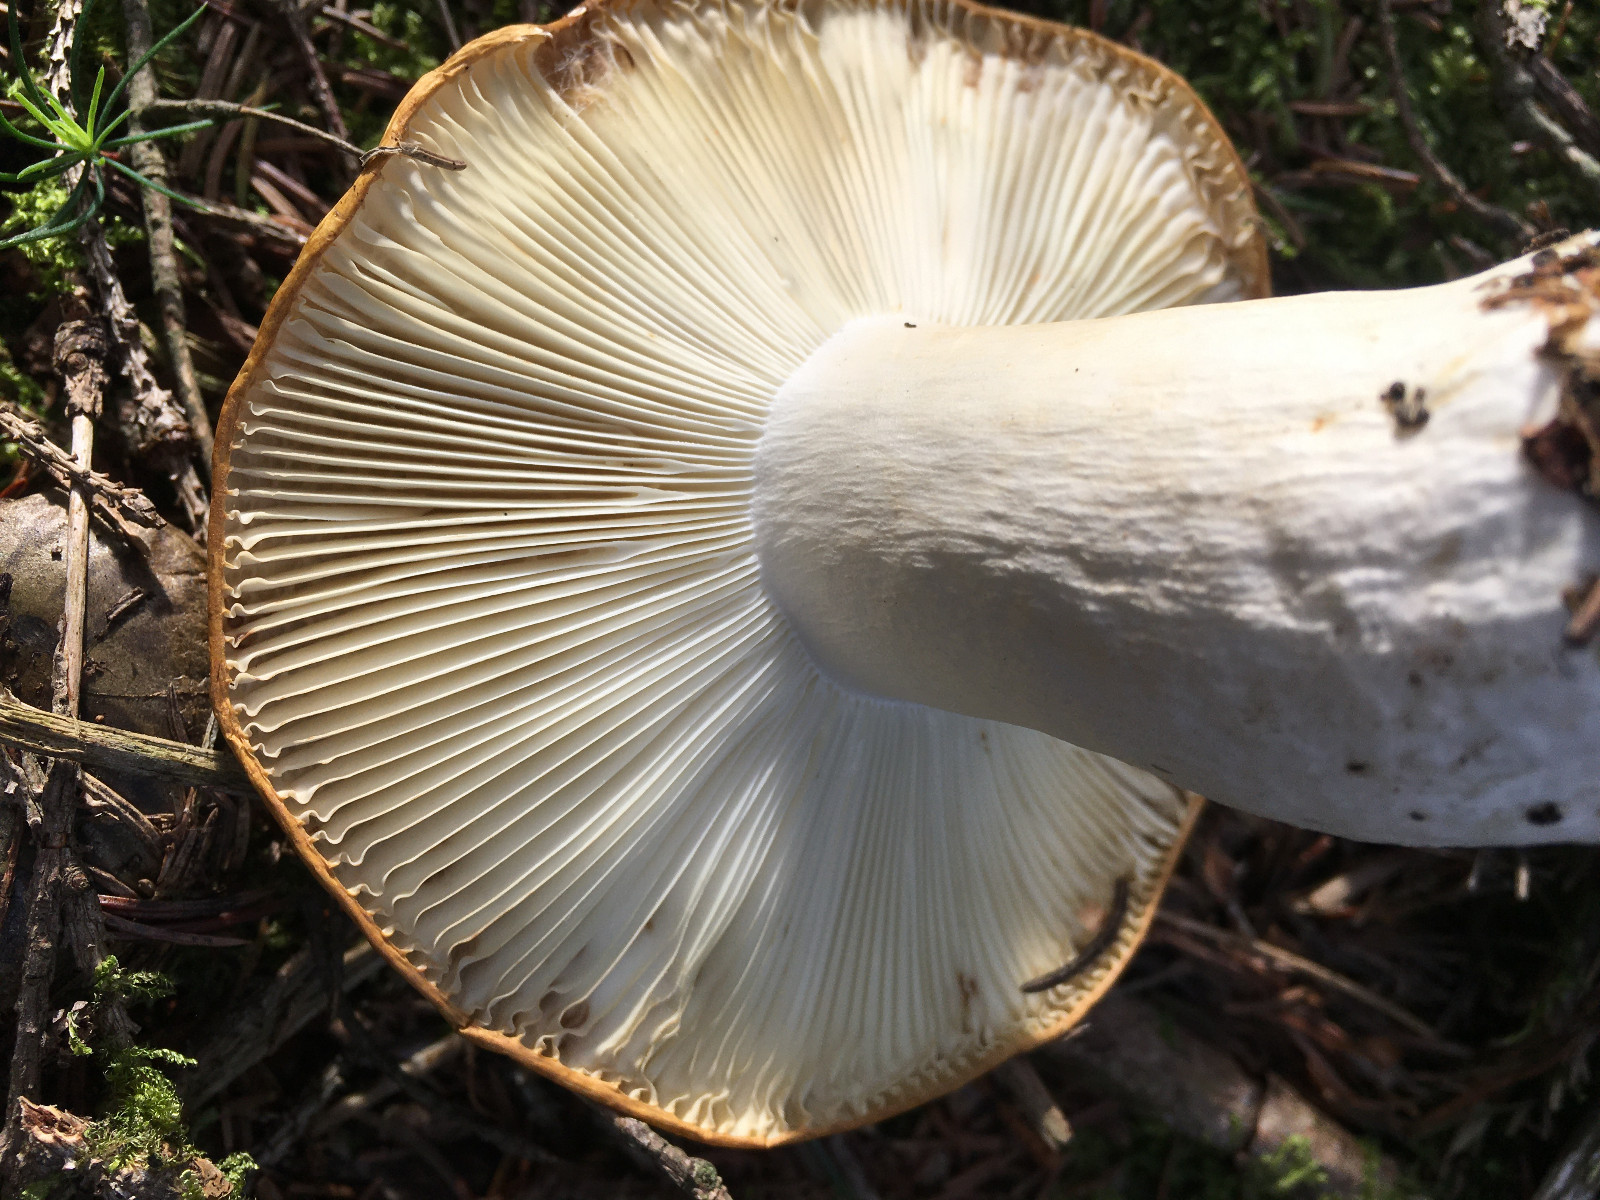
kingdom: Fungi
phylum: Basidiomycota
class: Agaricomycetes
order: Russulales
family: Russulaceae
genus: Russula
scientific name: Russula ochroleuca
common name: okkergul skørhat
